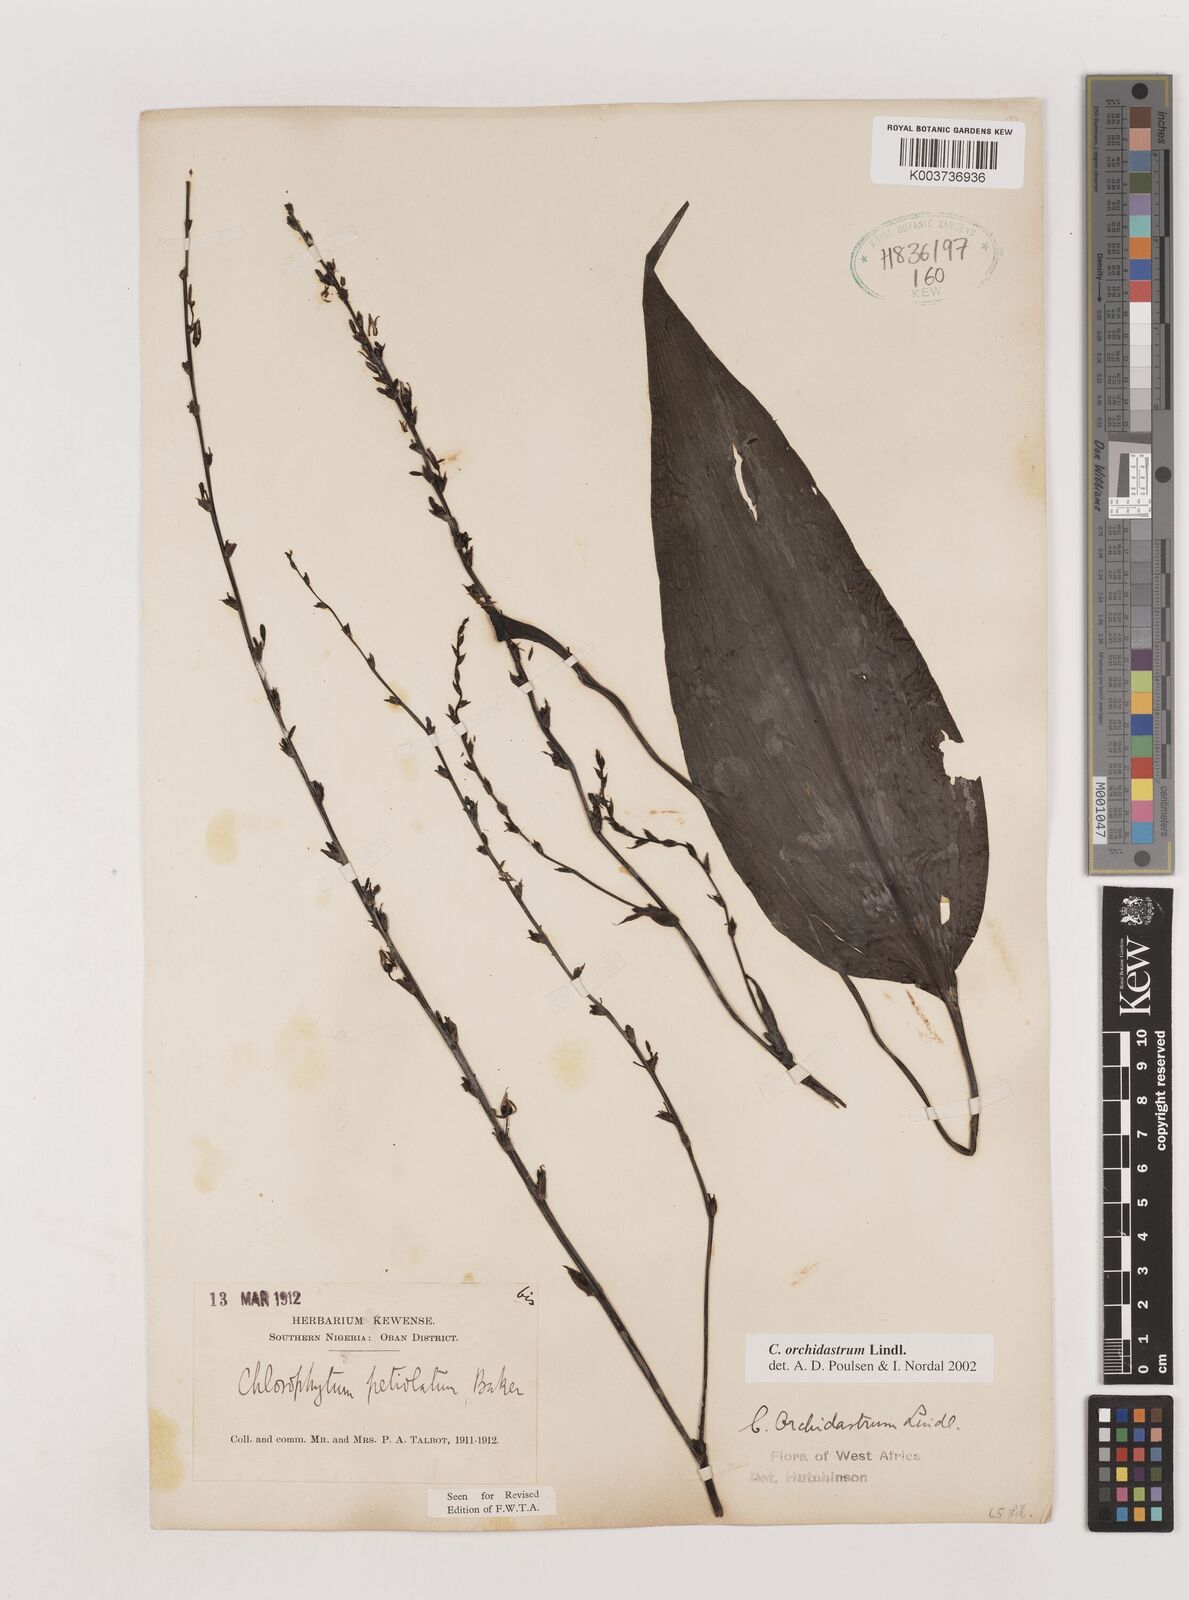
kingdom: Plantae
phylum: Tracheophyta
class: Liliopsida
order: Asparagales
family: Asparagaceae
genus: Chlorophytum
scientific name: Chlorophytum orchidastrum
